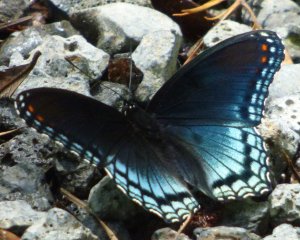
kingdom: Animalia
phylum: Arthropoda
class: Insecta
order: Lepidoptera
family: Nymphalidae
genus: Limenitis
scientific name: Limenitis astyanax
